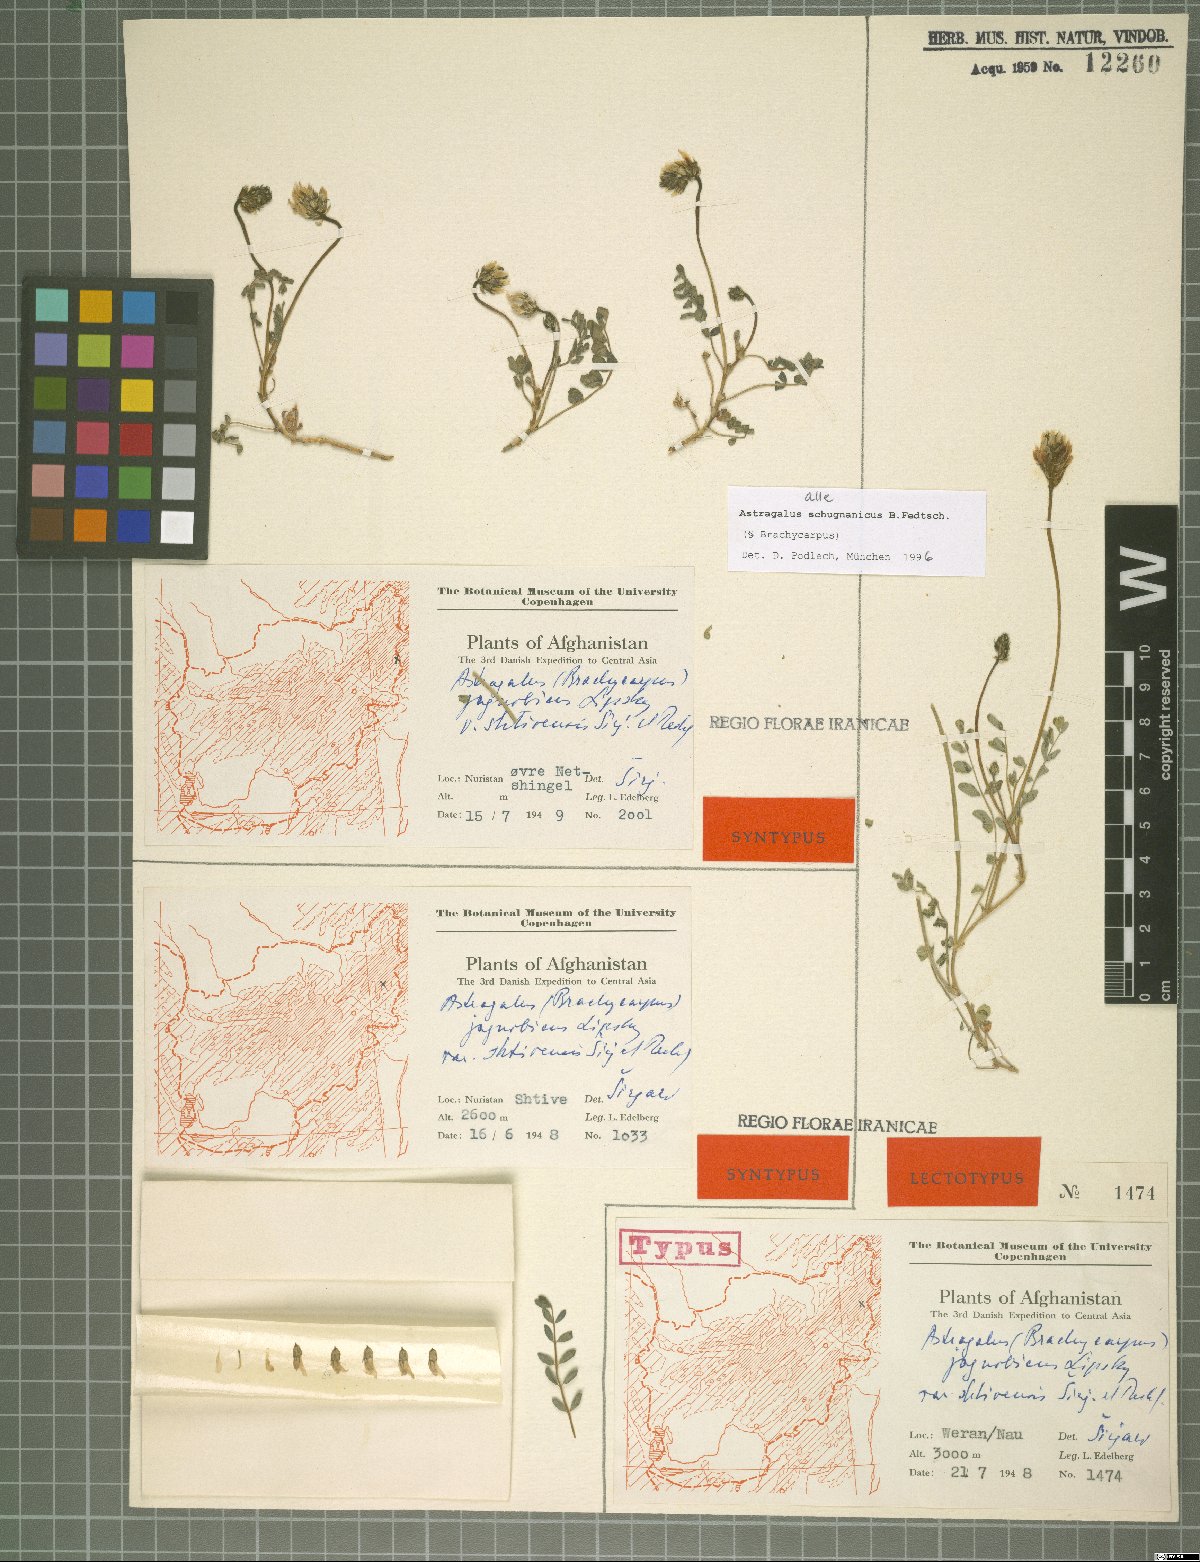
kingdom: Plantae
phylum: Tracheophyta
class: Magnoliopsida
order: Fabales
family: Fabaceae
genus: Astragalus
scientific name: Astragalus schugnanicus
